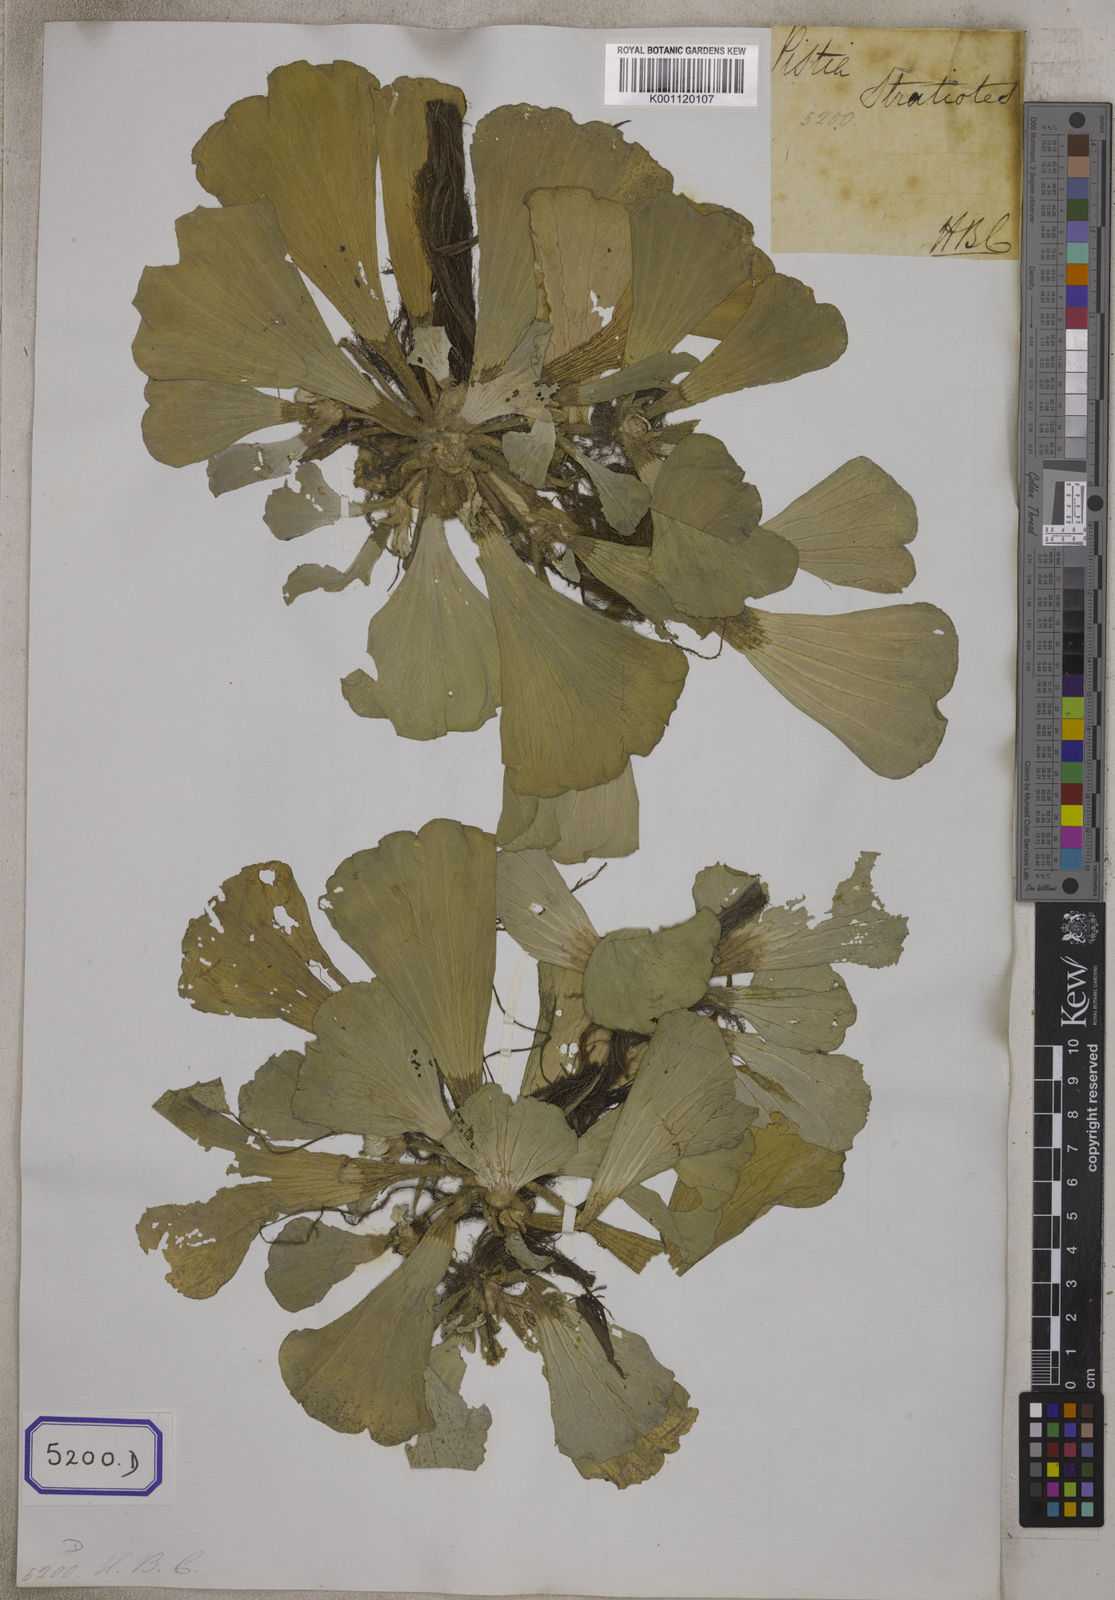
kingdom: Plantae
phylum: Tracheophyta
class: Liliopsida
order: Alismatales
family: Araceae
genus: Pistia
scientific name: Pistia stratiotes
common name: Water lettuce
